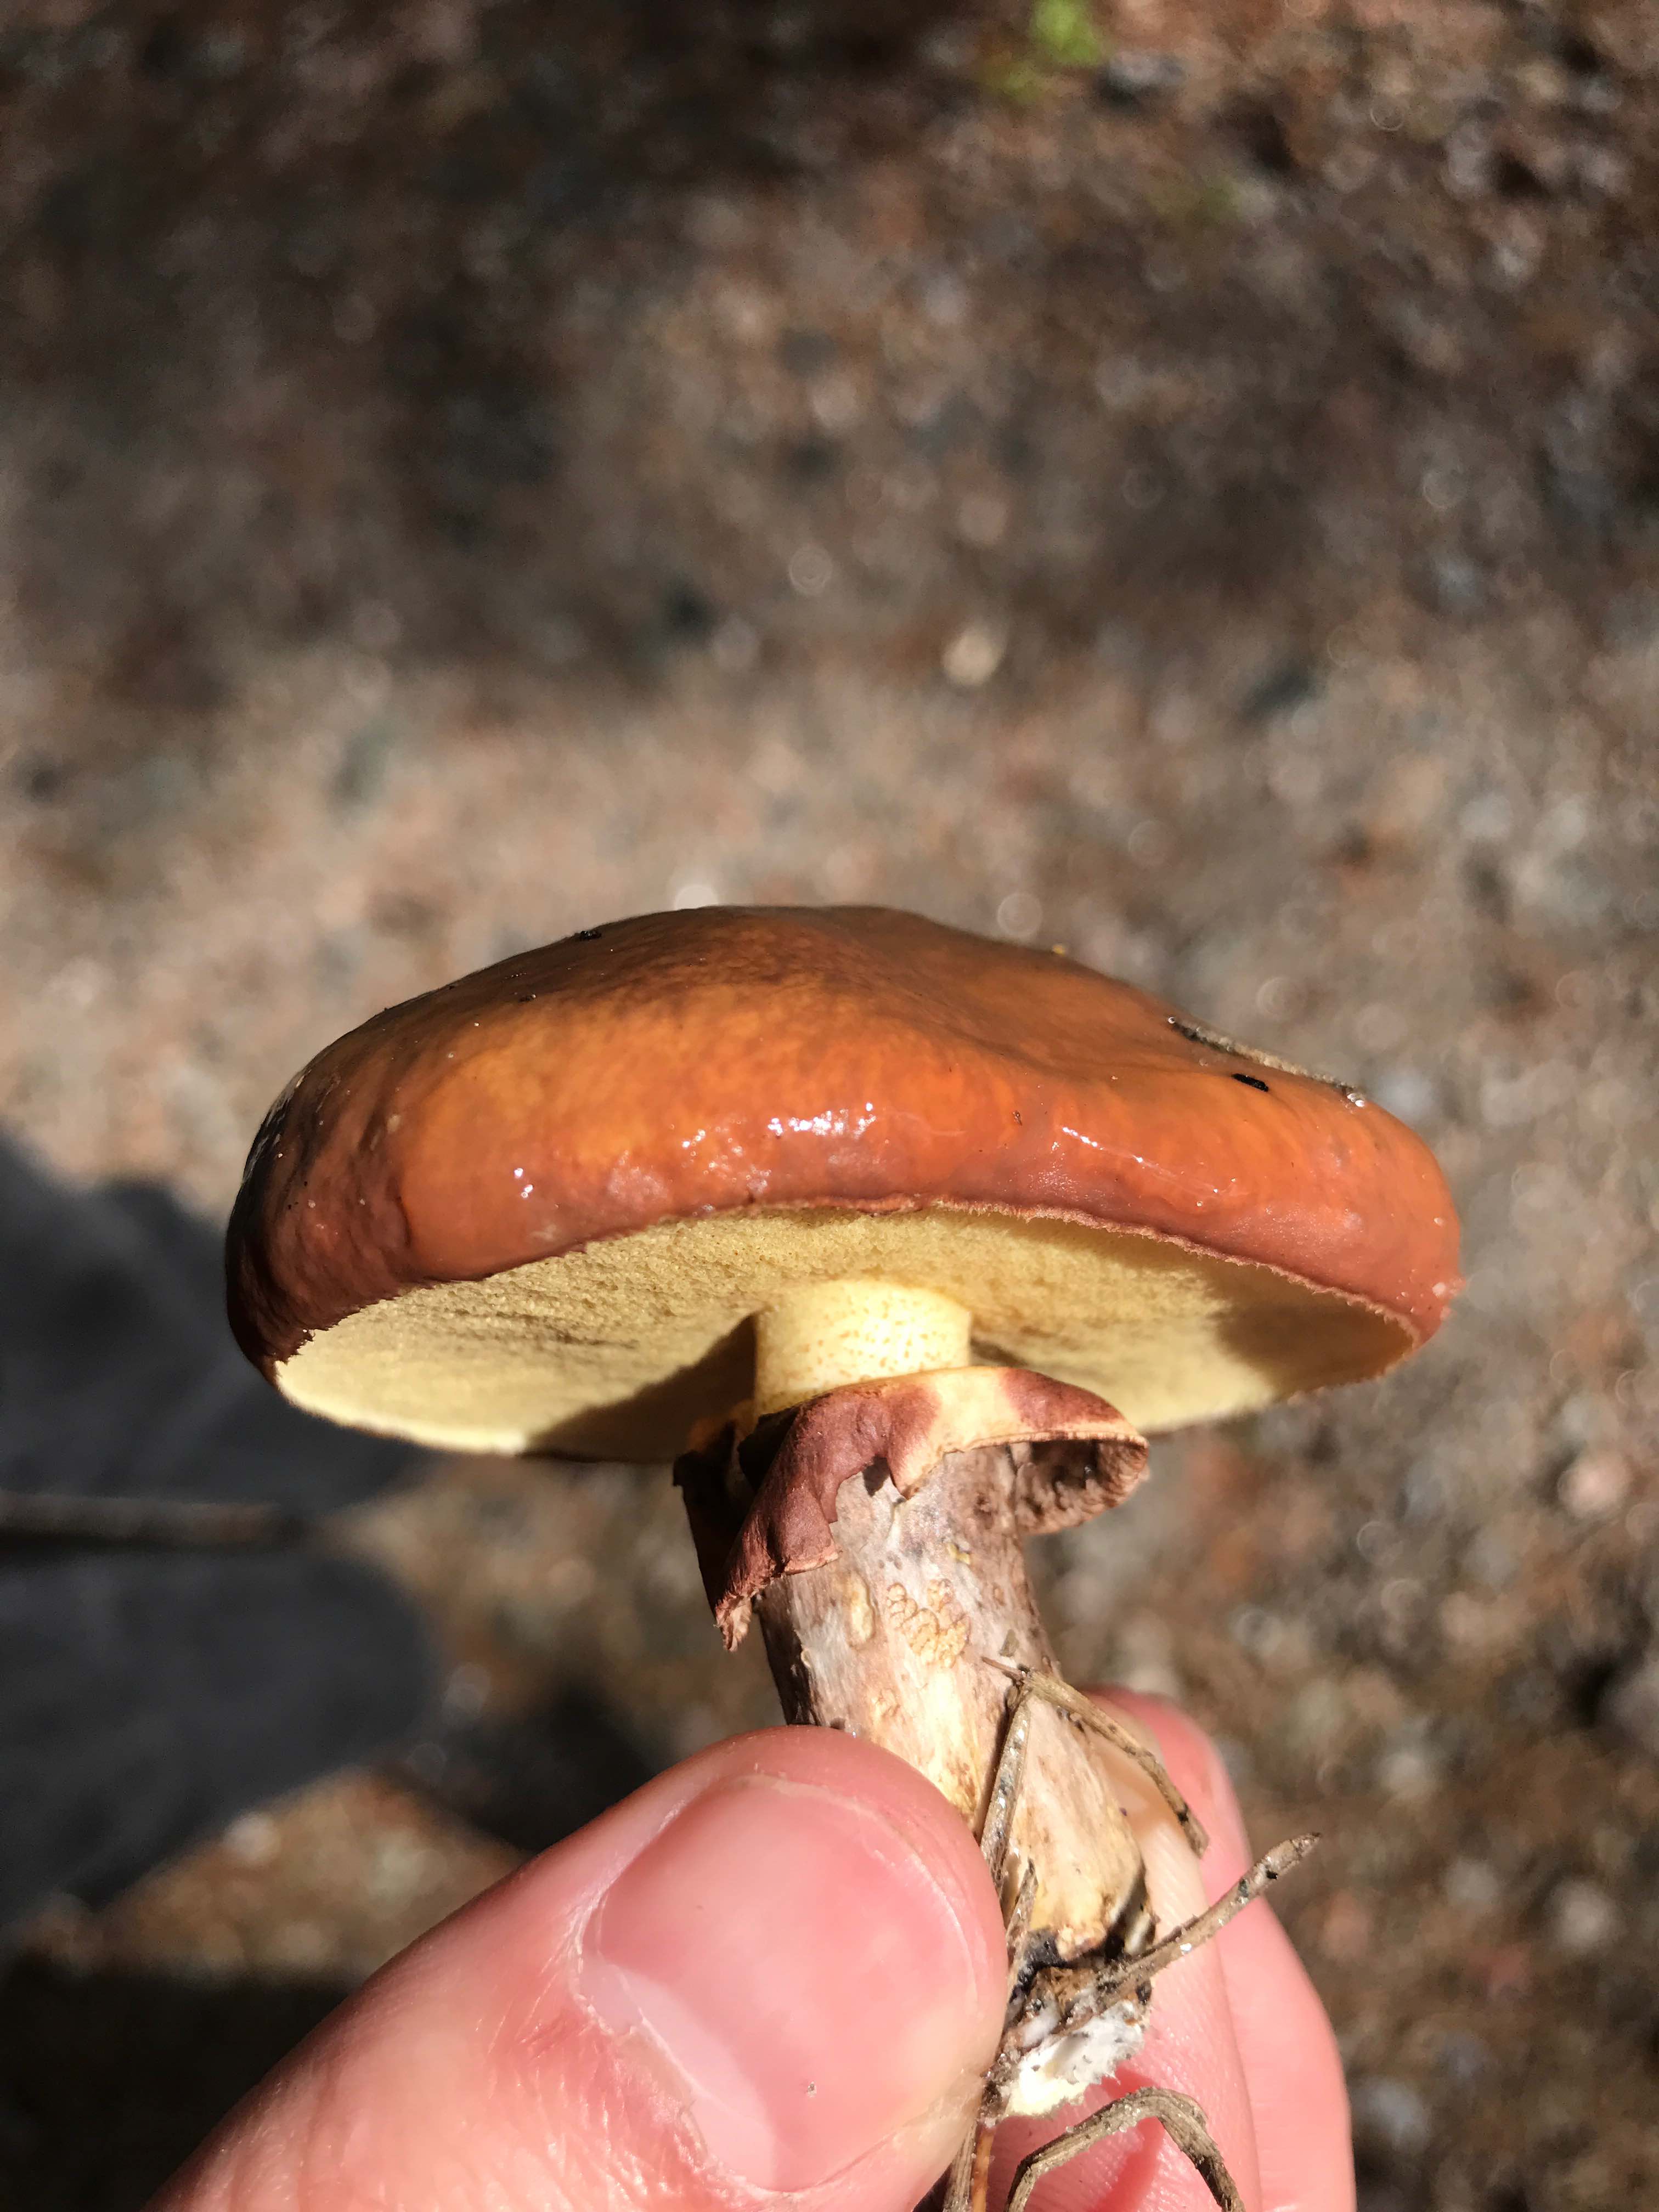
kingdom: Fungi
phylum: Basidiomycota
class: Agaricomycetes
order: Boletales
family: Suillaceae
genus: Suillus
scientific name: Suillus luteus
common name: brungul slimrørhat
